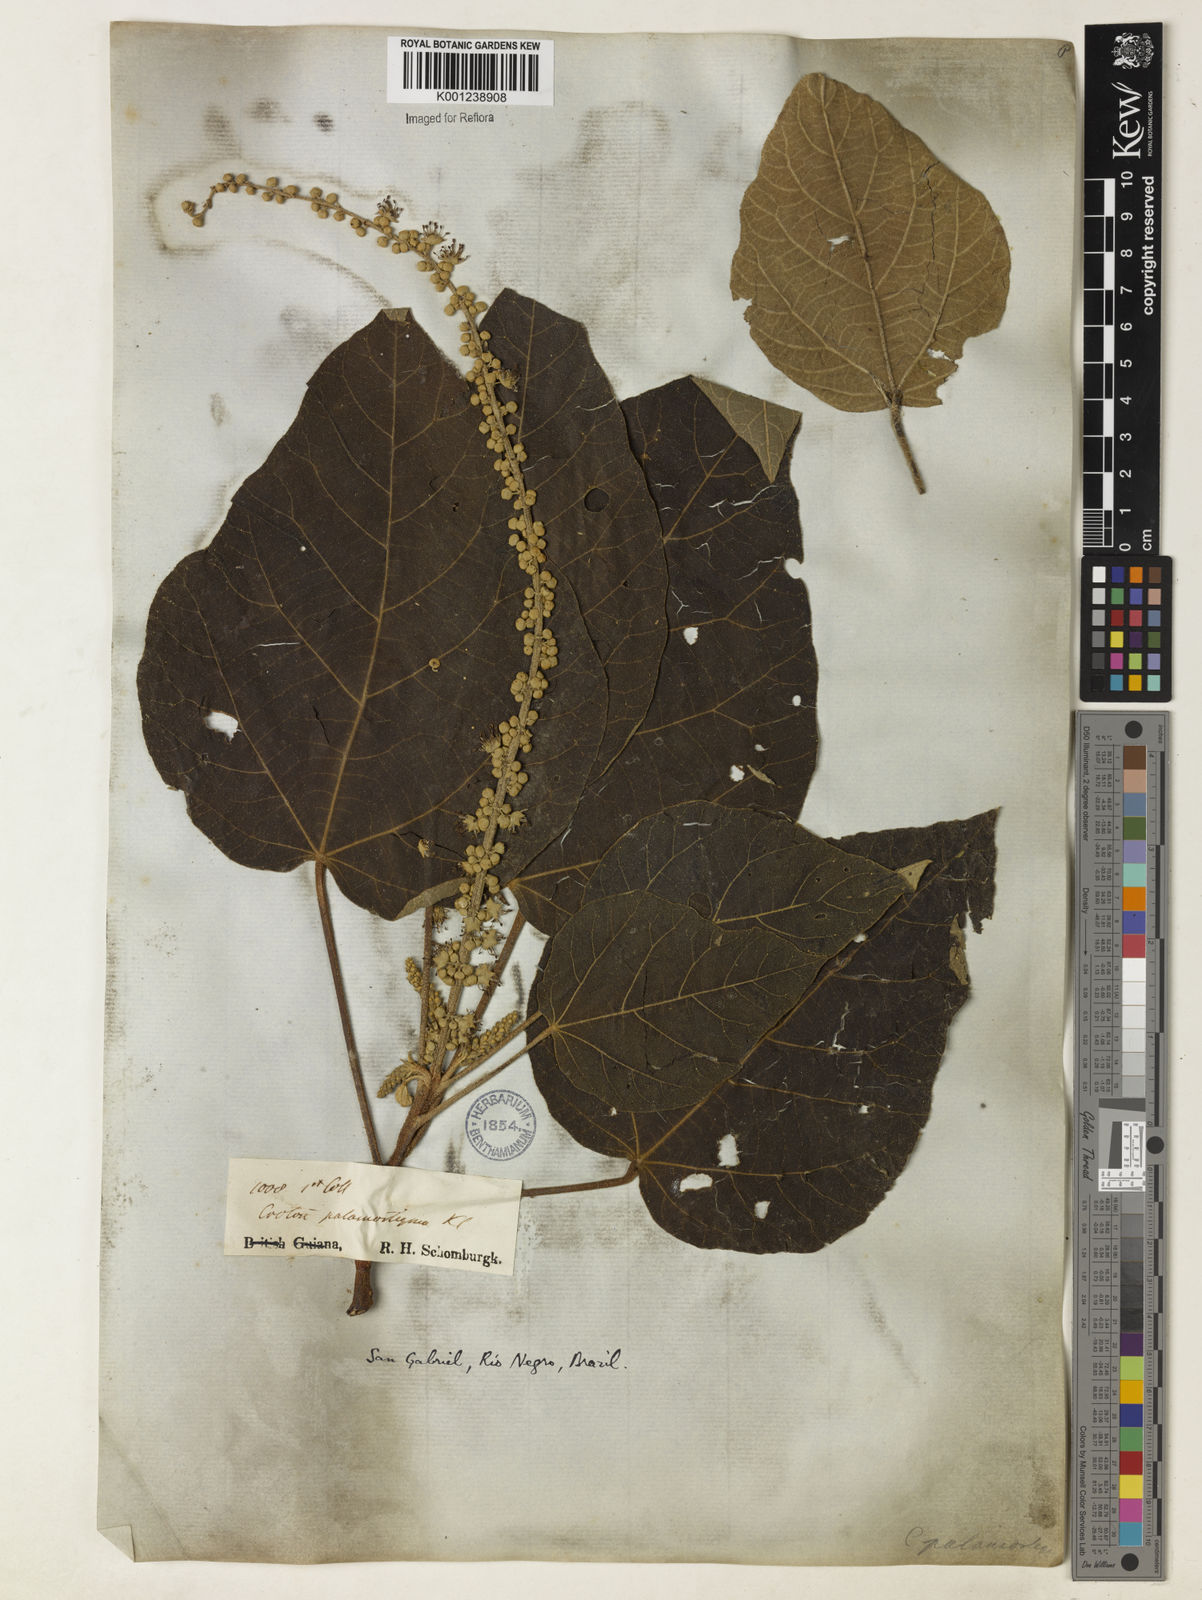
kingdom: Plantae
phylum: Tracheophyta
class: Magnoliopsida
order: Malpighiales
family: Euphorbiaceae
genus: Croton
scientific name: Croton palanostigma
